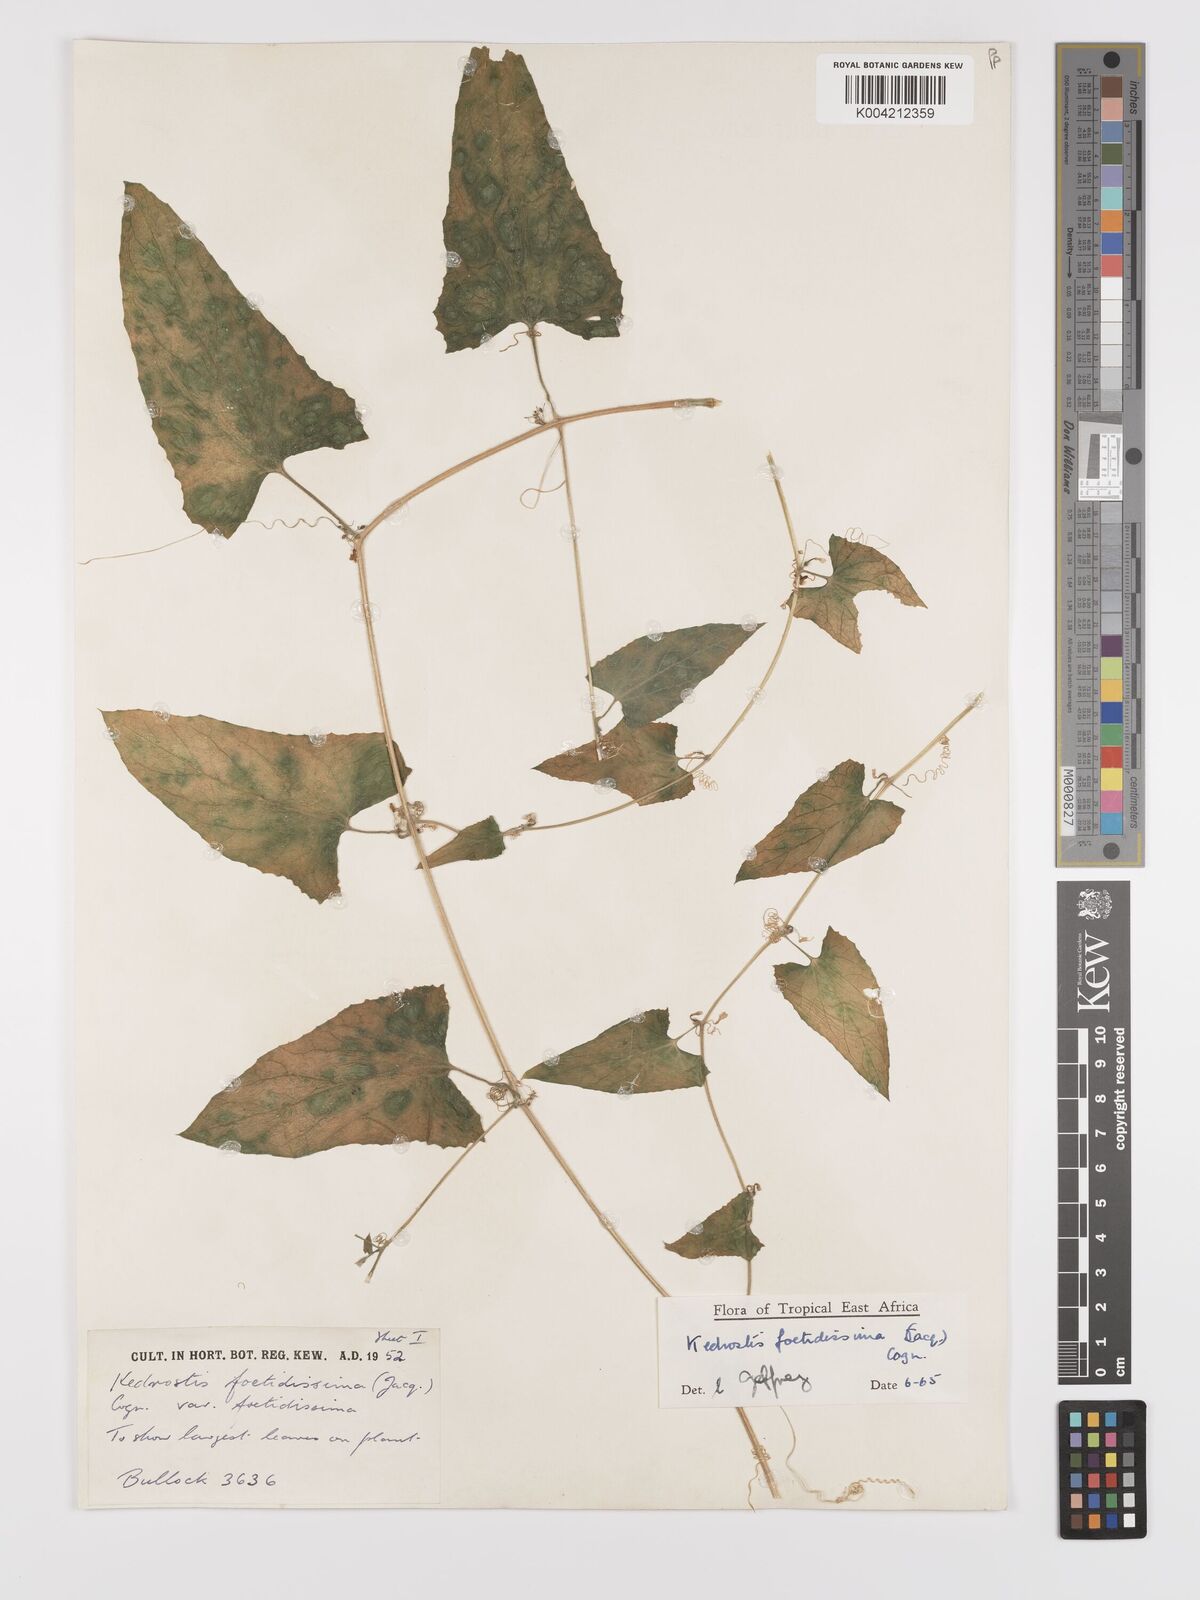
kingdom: Plantae
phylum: Tracheophyta
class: Magnoliopsida
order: Cucurbitales
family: Cucurbitaceae
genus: Kedrostis
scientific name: Kedrostis foetidissima
